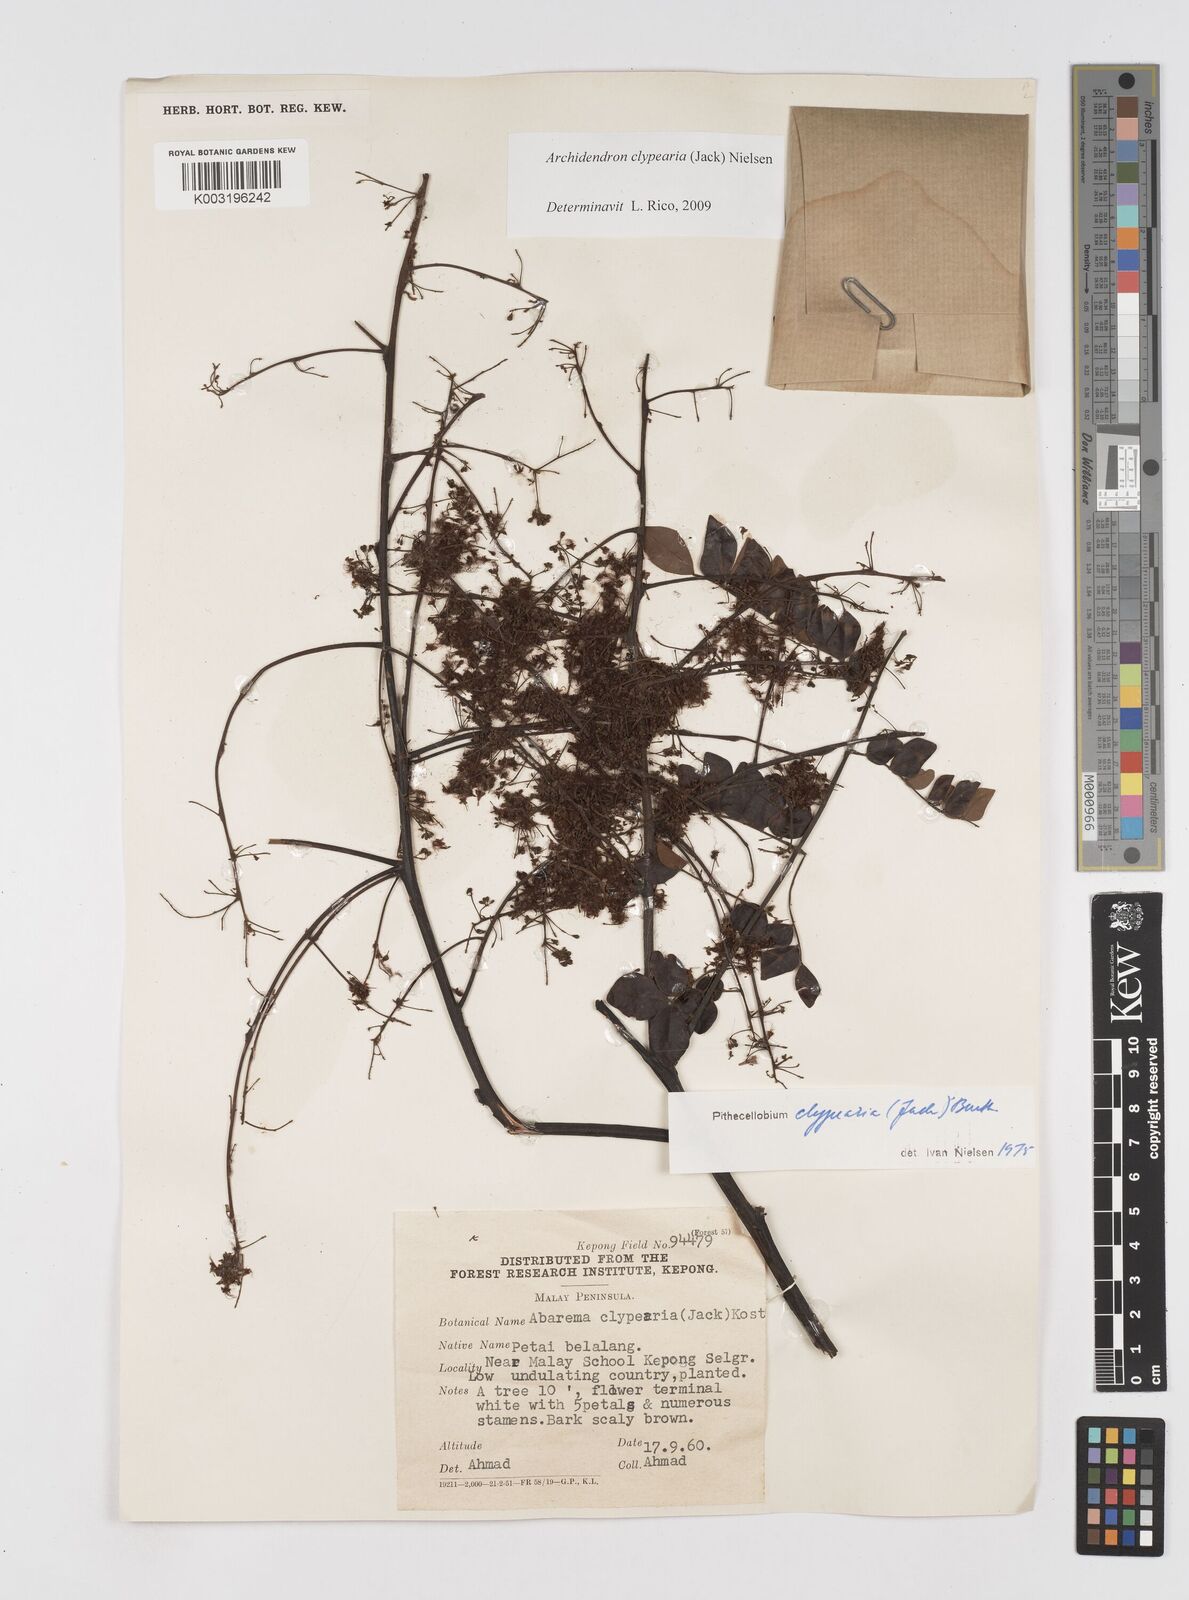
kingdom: Plantae
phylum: Tracheophyta
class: Magnoliopsida
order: Fabales
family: Fabaceae
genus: Archidendron
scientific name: Archidendron clypearia
